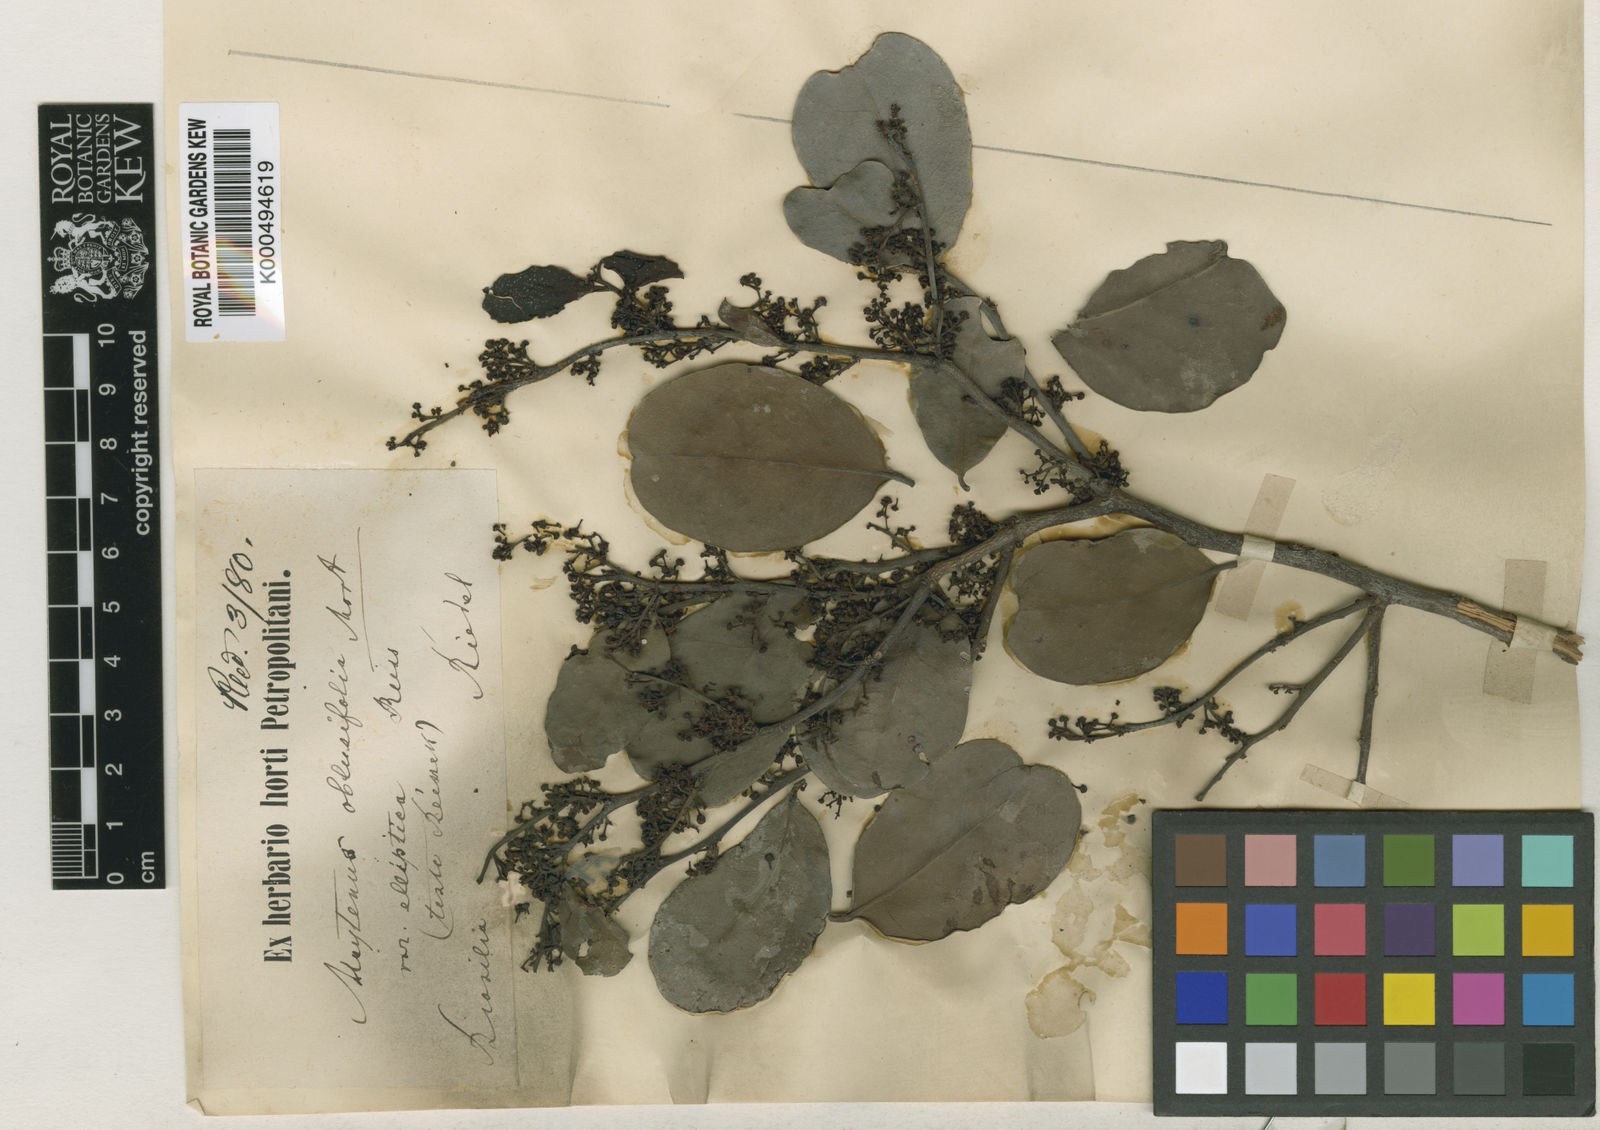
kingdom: Plantae
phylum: Tracheophyta
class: Magnoliopsida
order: Celastrales
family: Celastraceae
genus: Monteverdia
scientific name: Monteverdia obtusifolia
